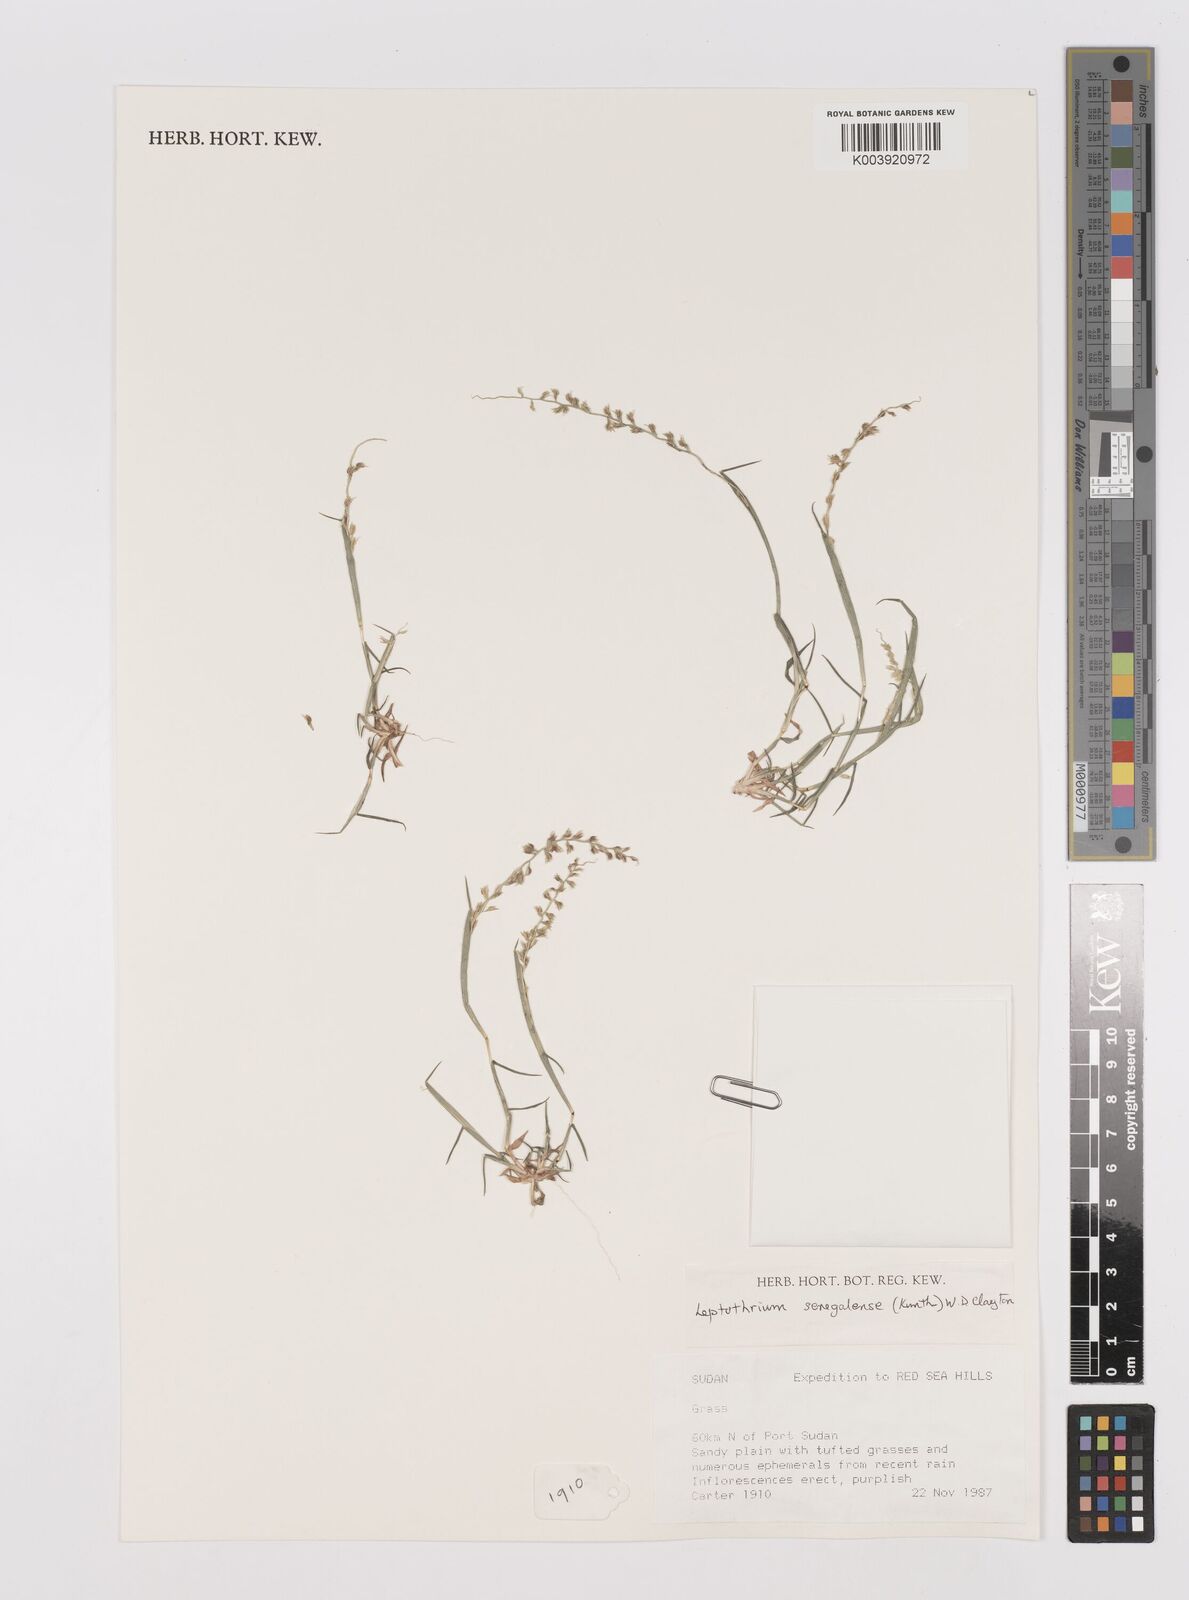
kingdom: Plantae
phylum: Tracheophyta
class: Liliopsida
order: Poales
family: Poaceae
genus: Leptothrium
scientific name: Leptothrium senegalense
